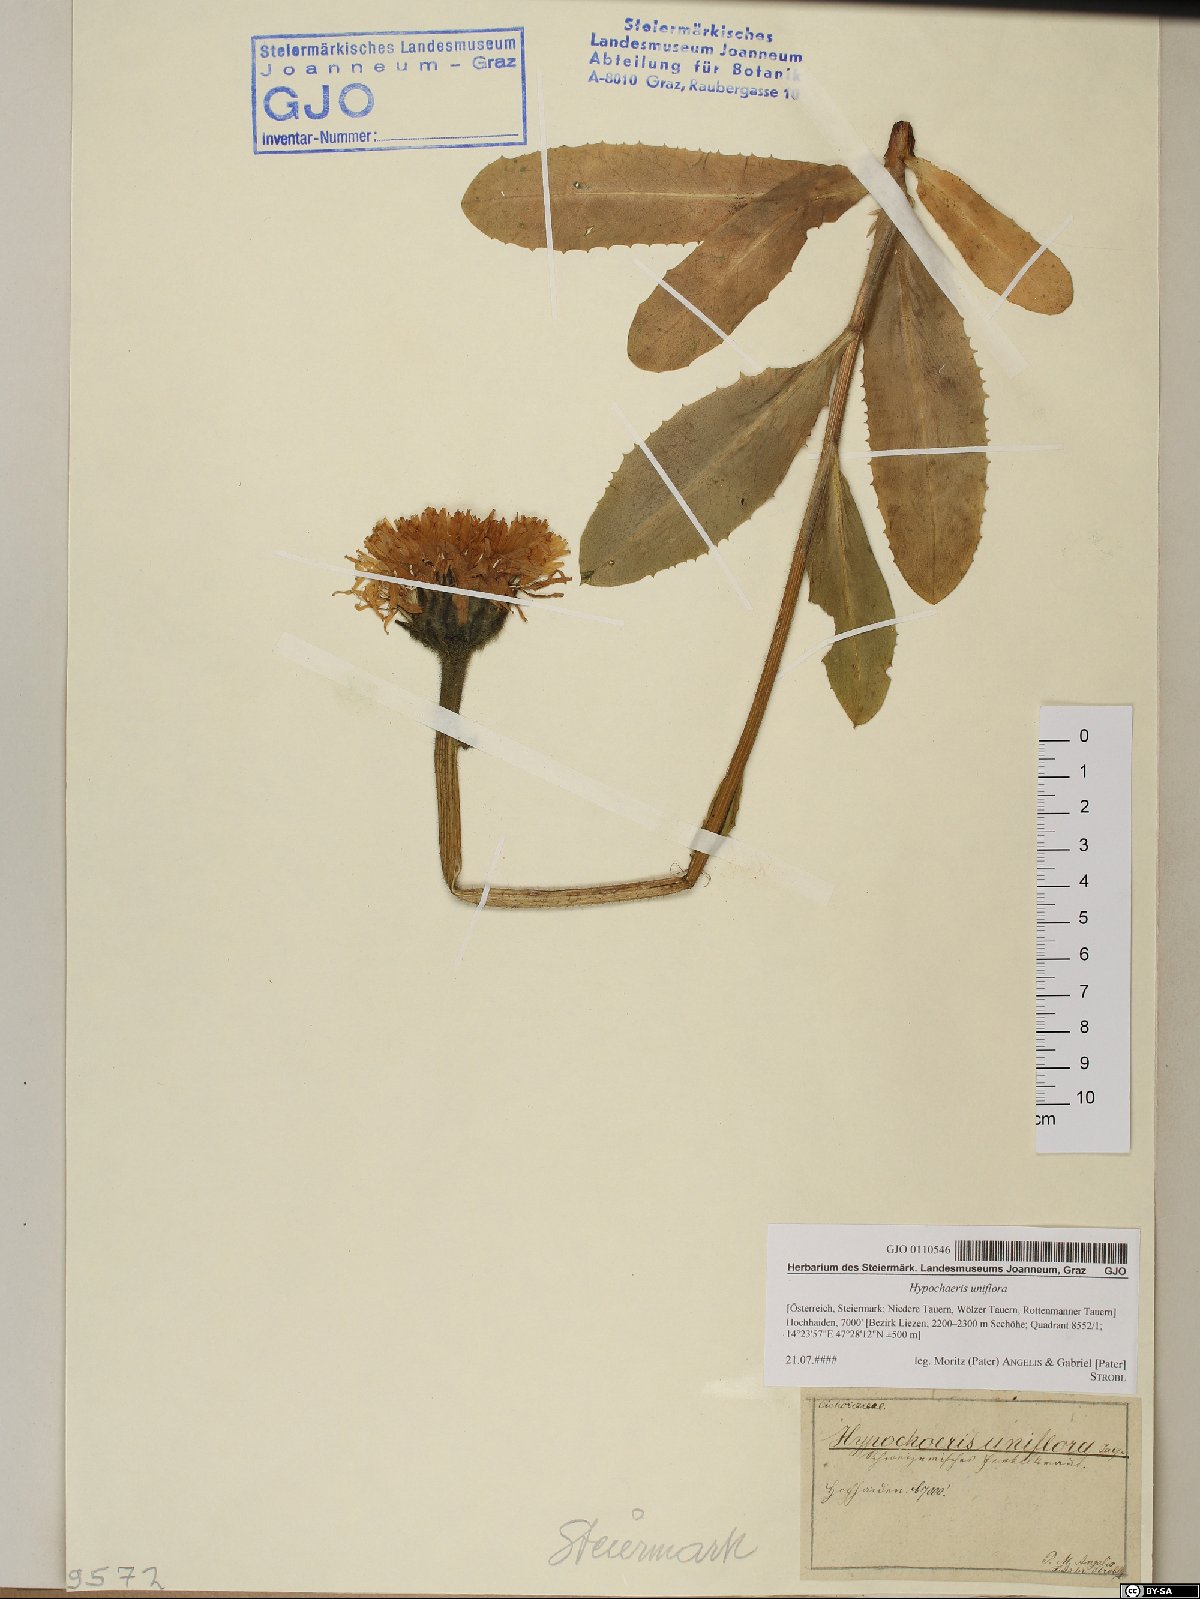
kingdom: Plantae
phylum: Tracheophyta
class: Magnoliopsida
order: Asterales
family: Asteraceae
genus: Trommsdorffia
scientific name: Trommsdorffia uniflora
